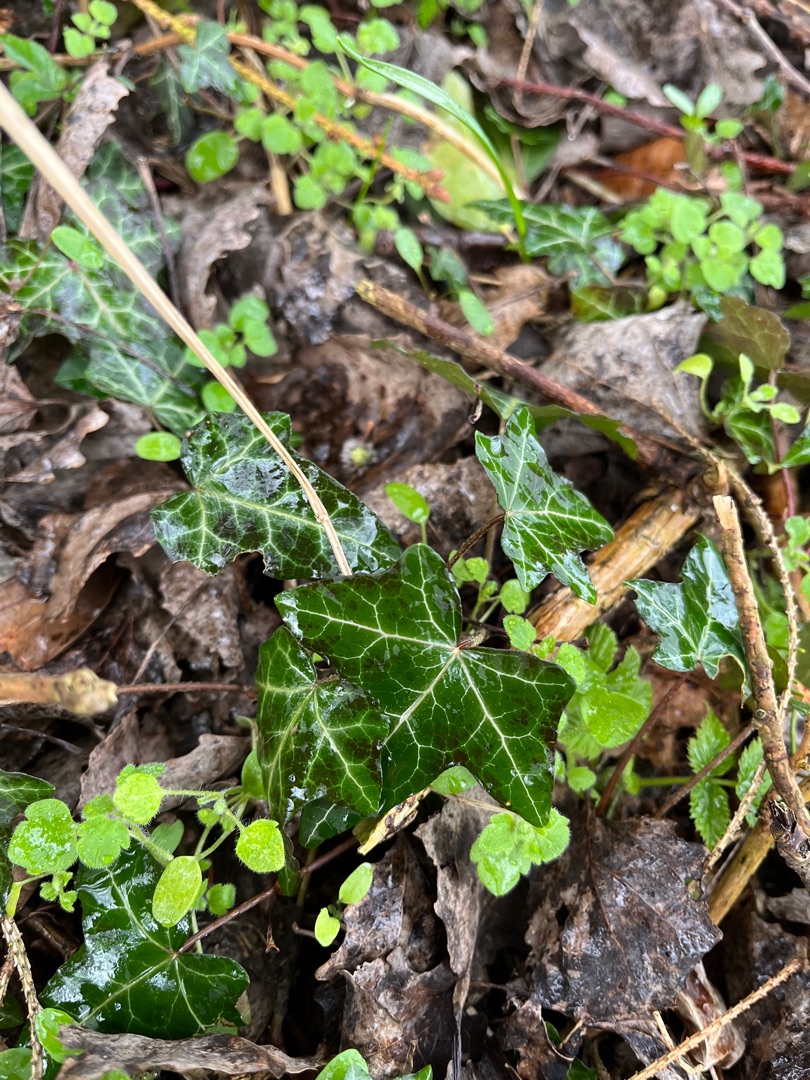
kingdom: Plantae
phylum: Tracheophyta
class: Magnoliopsida
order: Apiales
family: Araliaceae
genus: Hedera
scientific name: Hedera helix
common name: Vedbend
